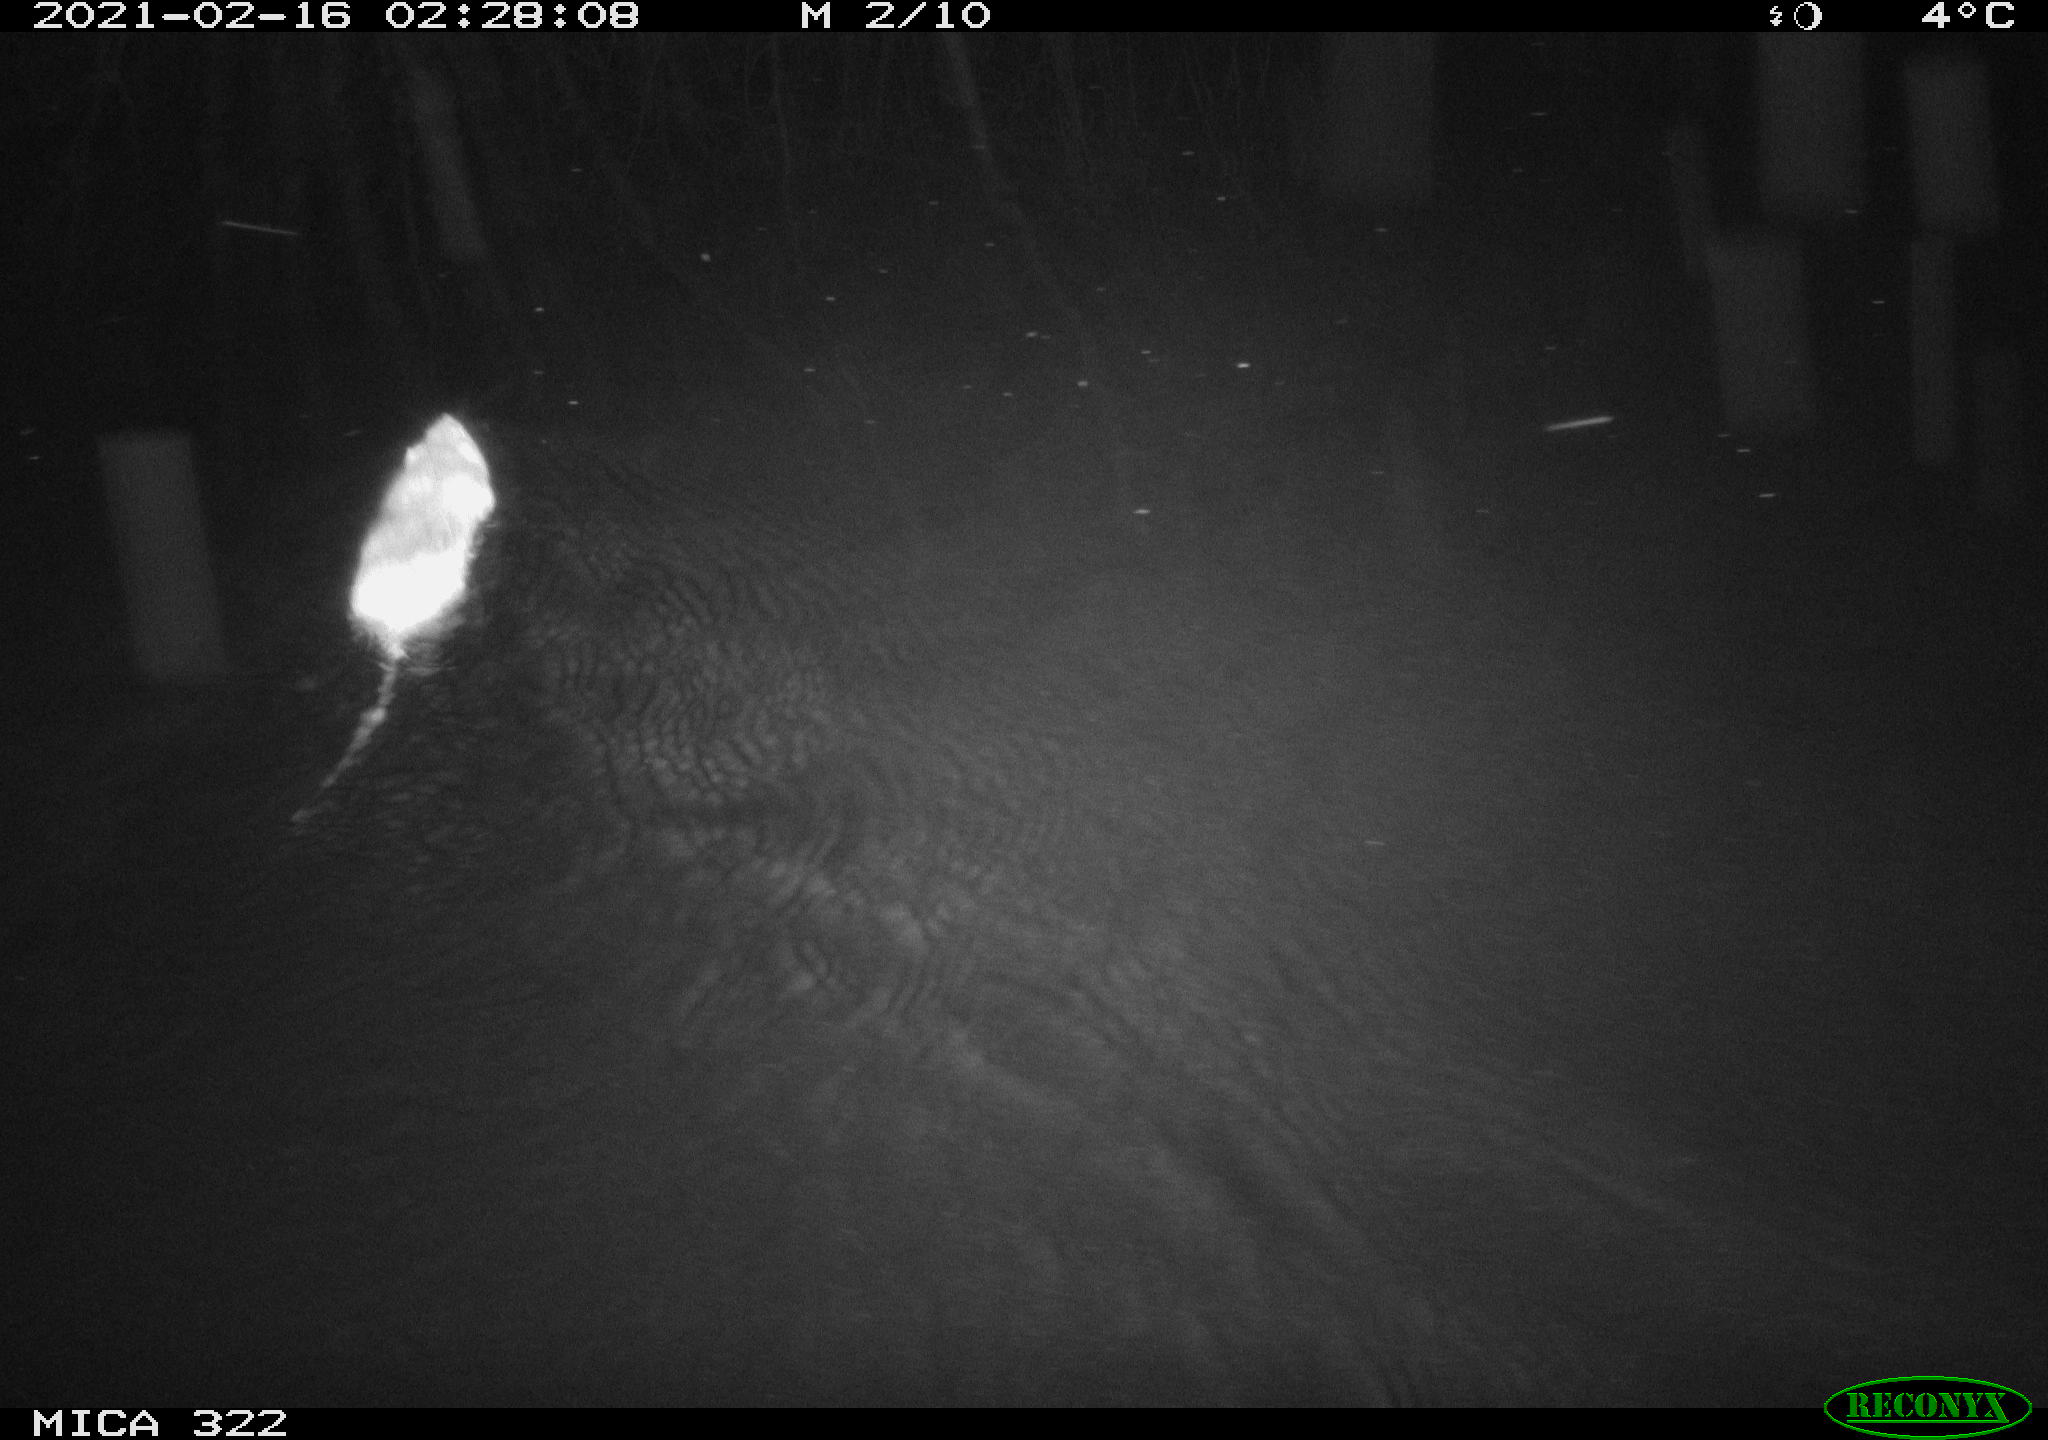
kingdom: Animalia
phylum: Chordata
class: Mammalia
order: Rodentia
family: Muridae
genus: Rattus
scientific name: Rattus norvegicus
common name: Brown rat
